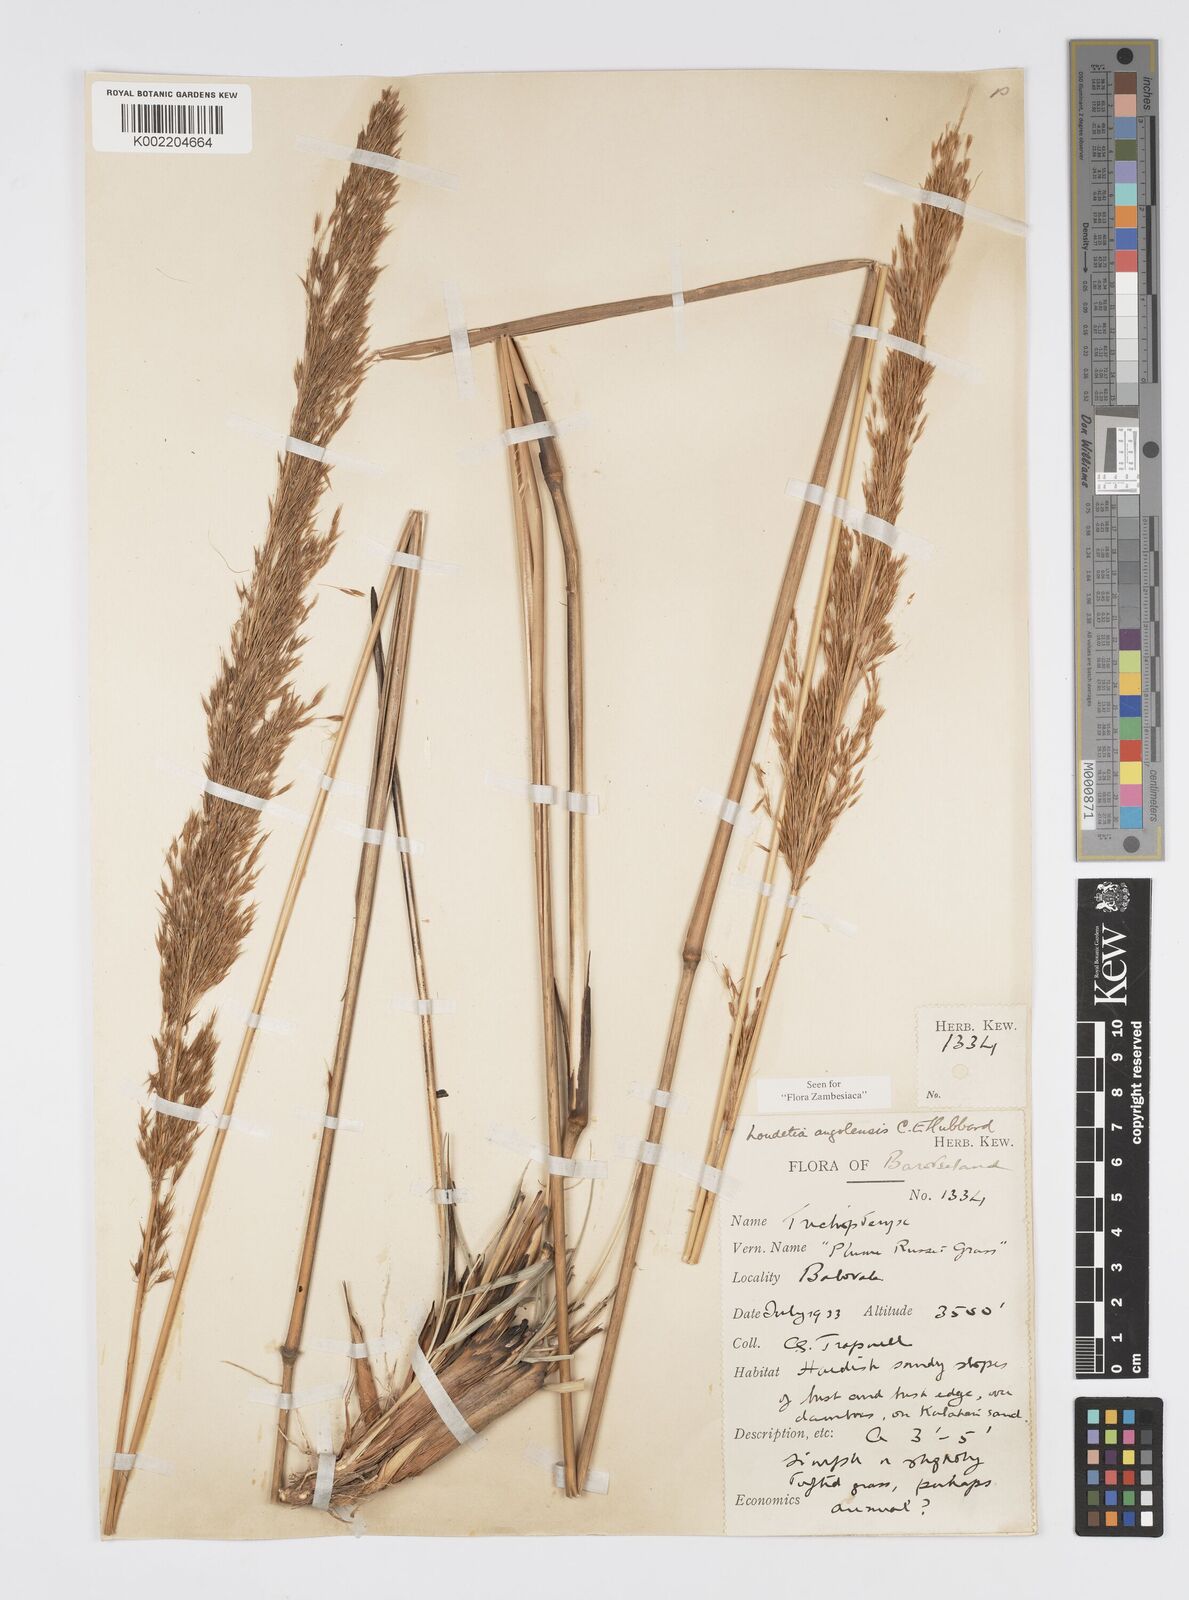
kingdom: Plantae
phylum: Tracheophyta
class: Liliopsida
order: Poales
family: Poaceae
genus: Loudetia
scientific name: Loudetia angolensis
